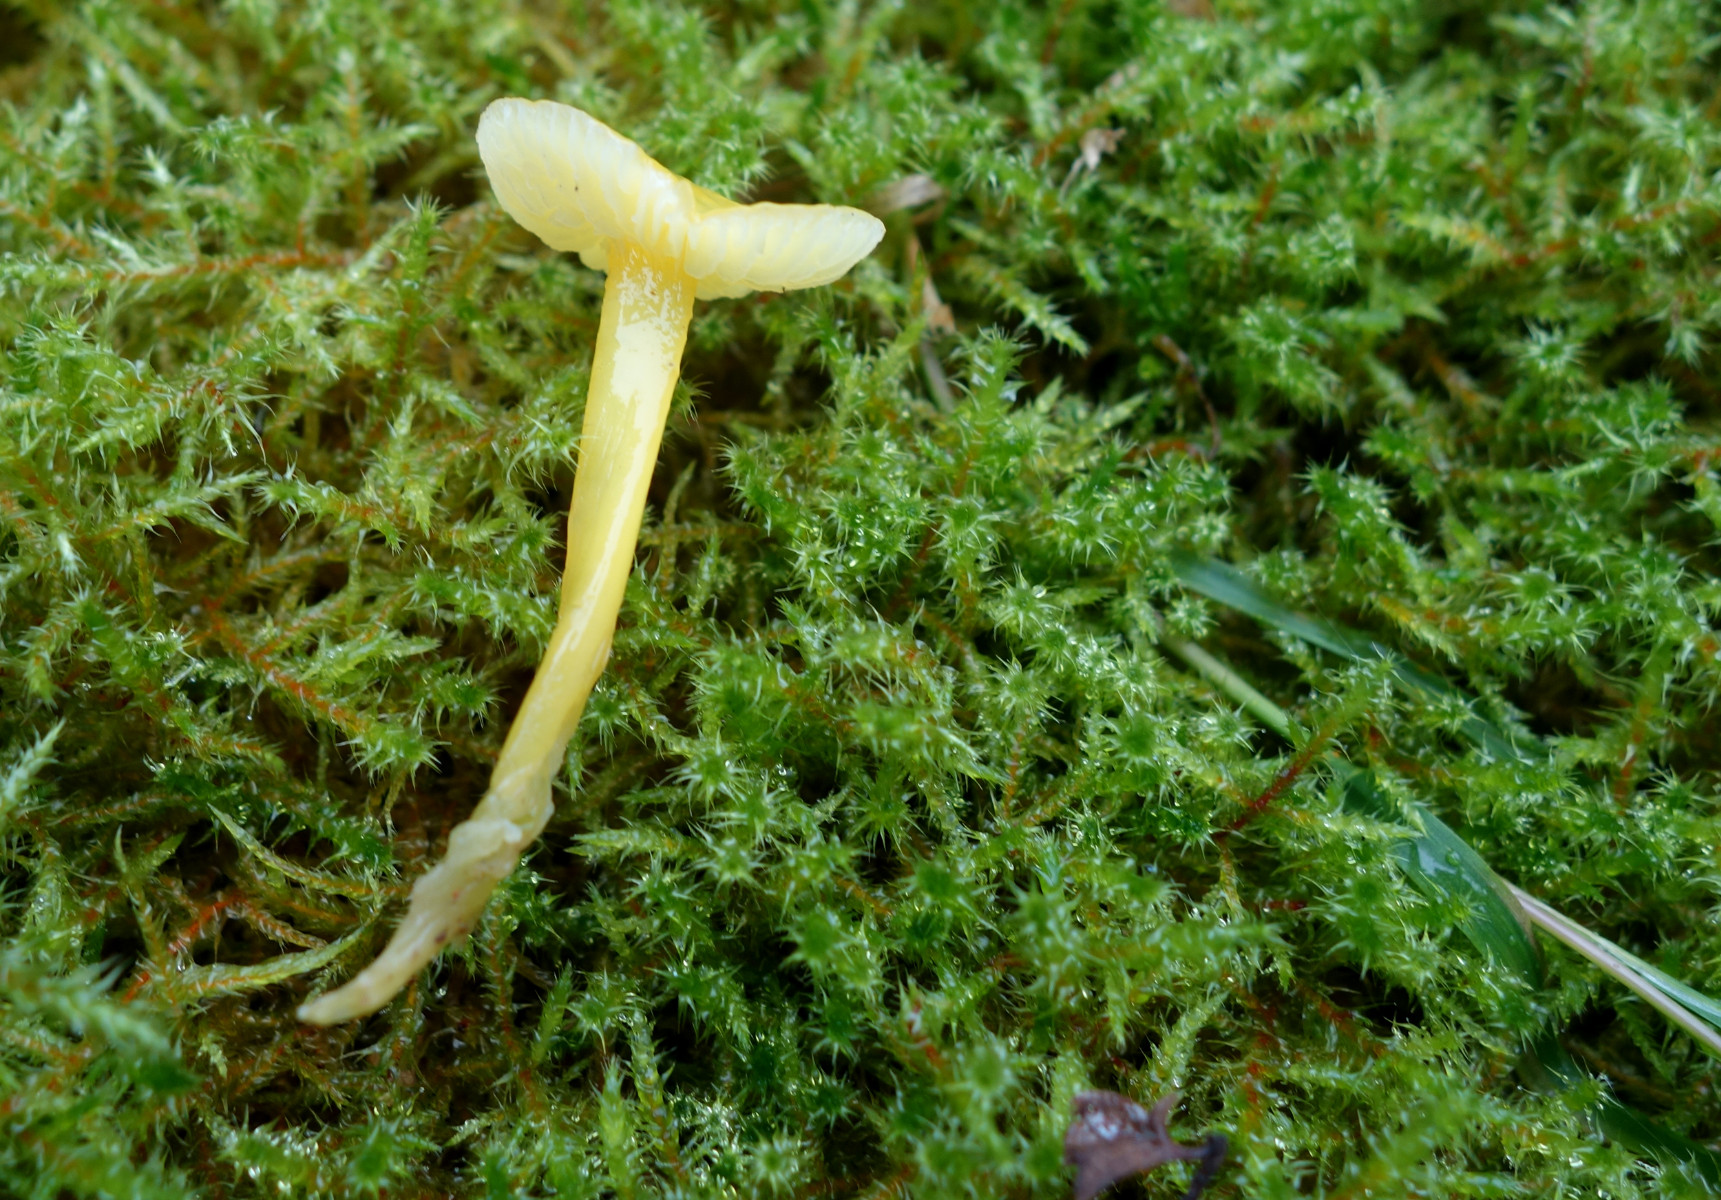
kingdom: Fungi
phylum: Basidiomycota
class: Agaricomycetes
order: Agaricales
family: Hygrophoraceae
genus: Hygrocybe
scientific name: Hygrocybe glutinipes
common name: slimstokket vokshat
